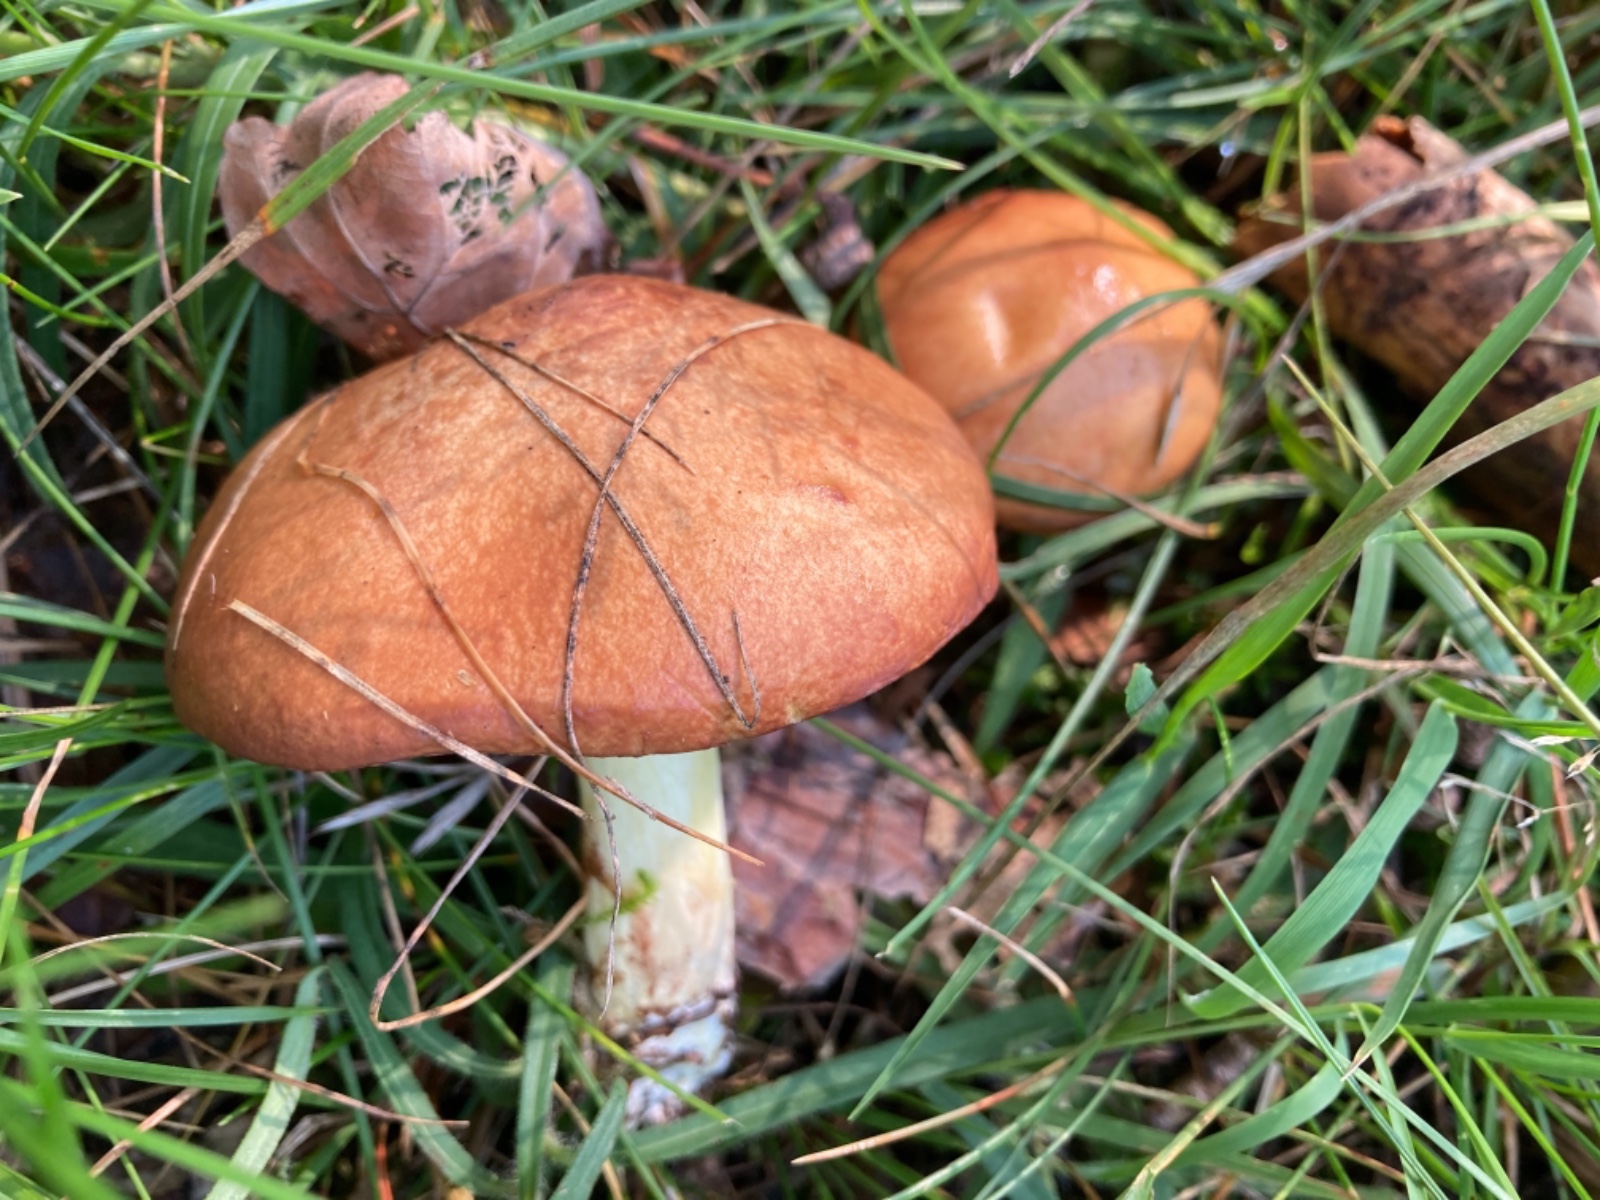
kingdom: Fungi
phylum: Basidiomycota
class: Agaricomycetes
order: Boletales
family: Suillaceae
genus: Suillus
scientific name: Suillus granulatus
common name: kornet slimrørhat
